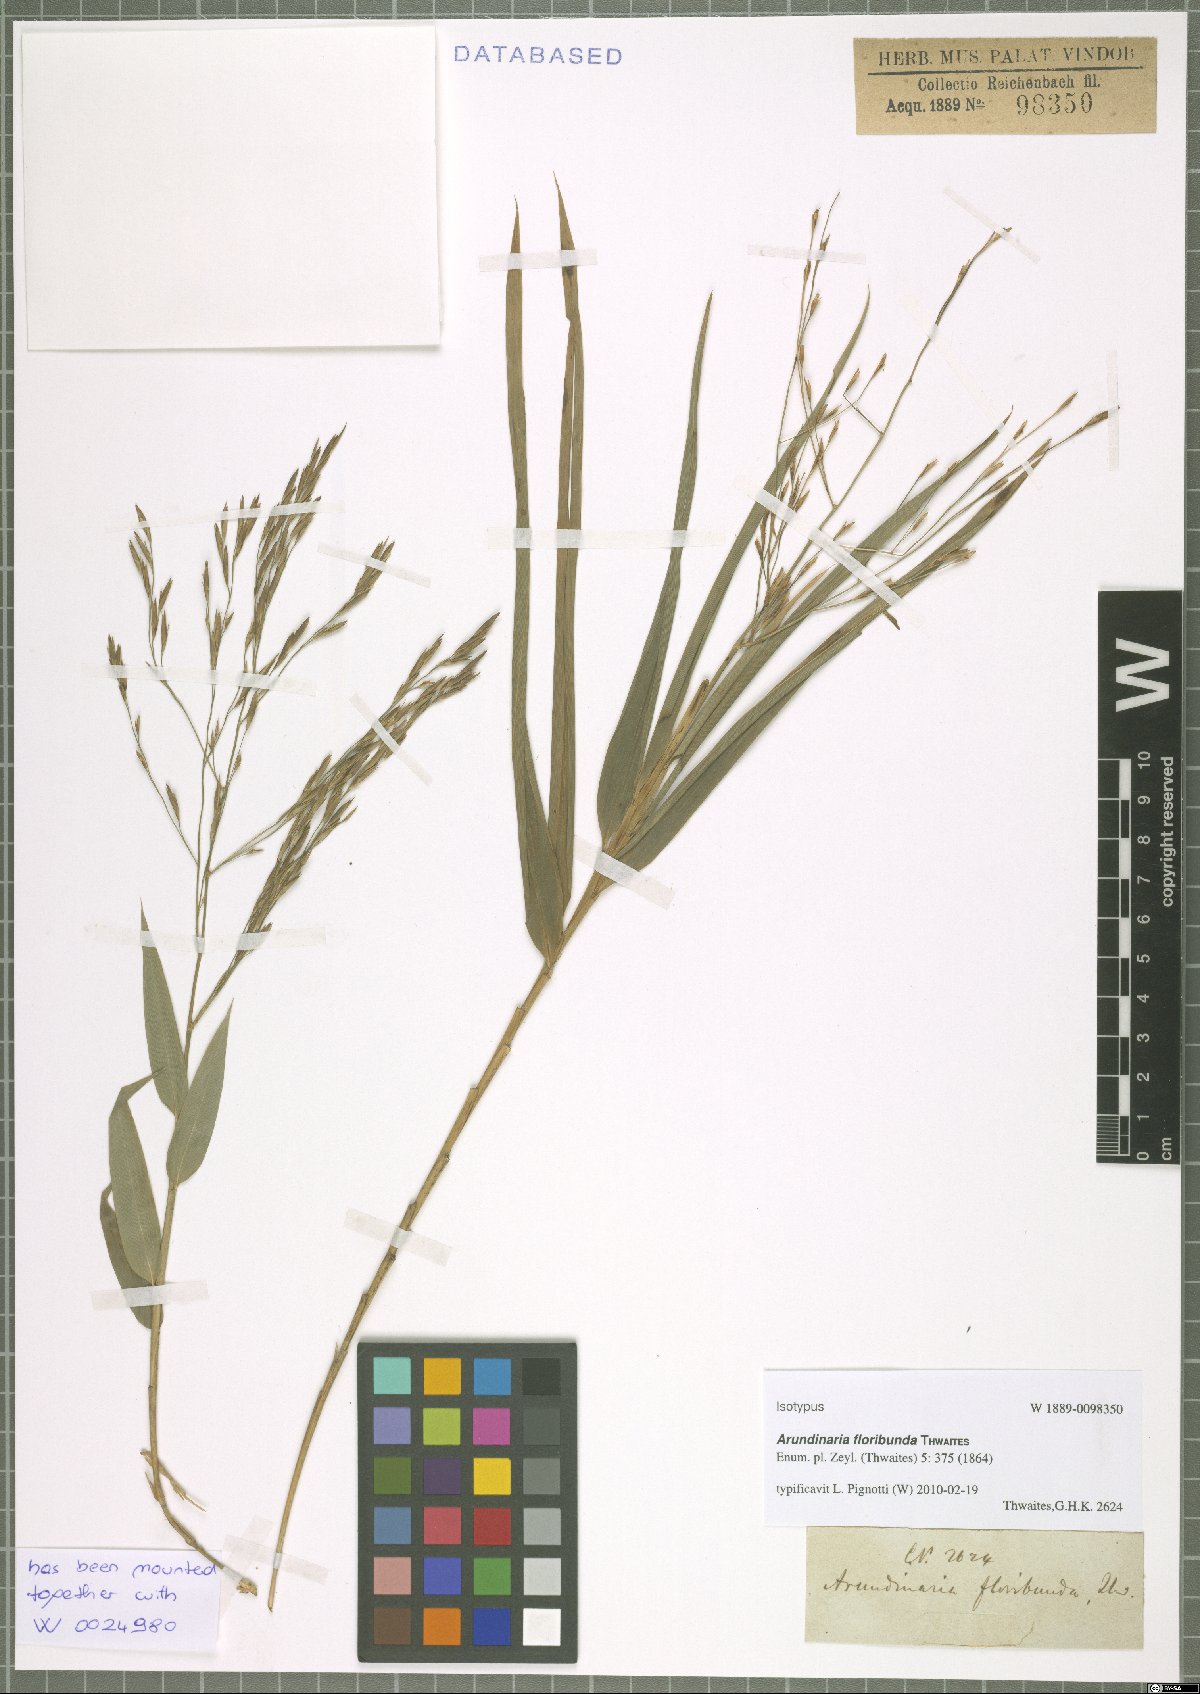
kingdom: Plantae
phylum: Tracheophyta
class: Liliopsida
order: Poales
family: Poaceae
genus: Kuruna
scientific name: Kuruna floribunda
